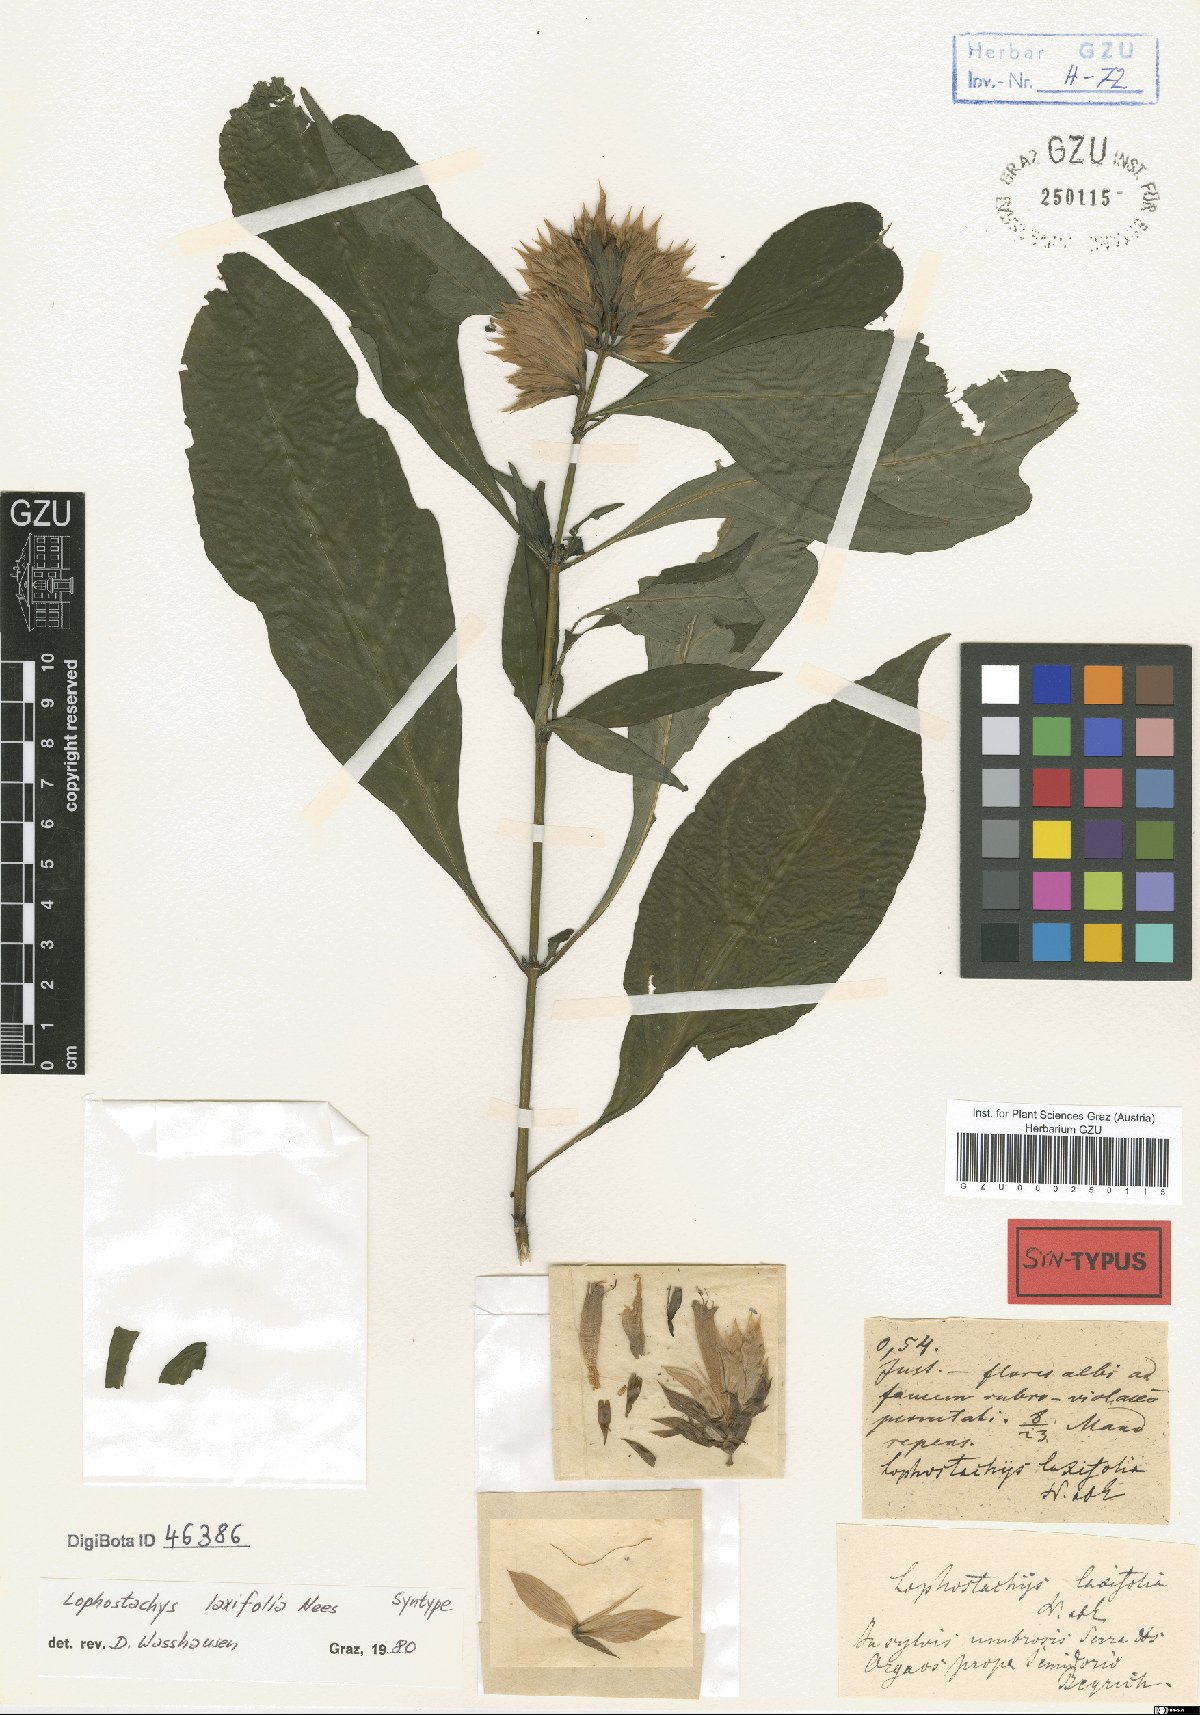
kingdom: Plantae
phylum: Tracheophyta
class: Magnoliopsida
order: Lamiales
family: Acanthaceae
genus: Lepidagathis
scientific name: Lepidagathis laxifolia
